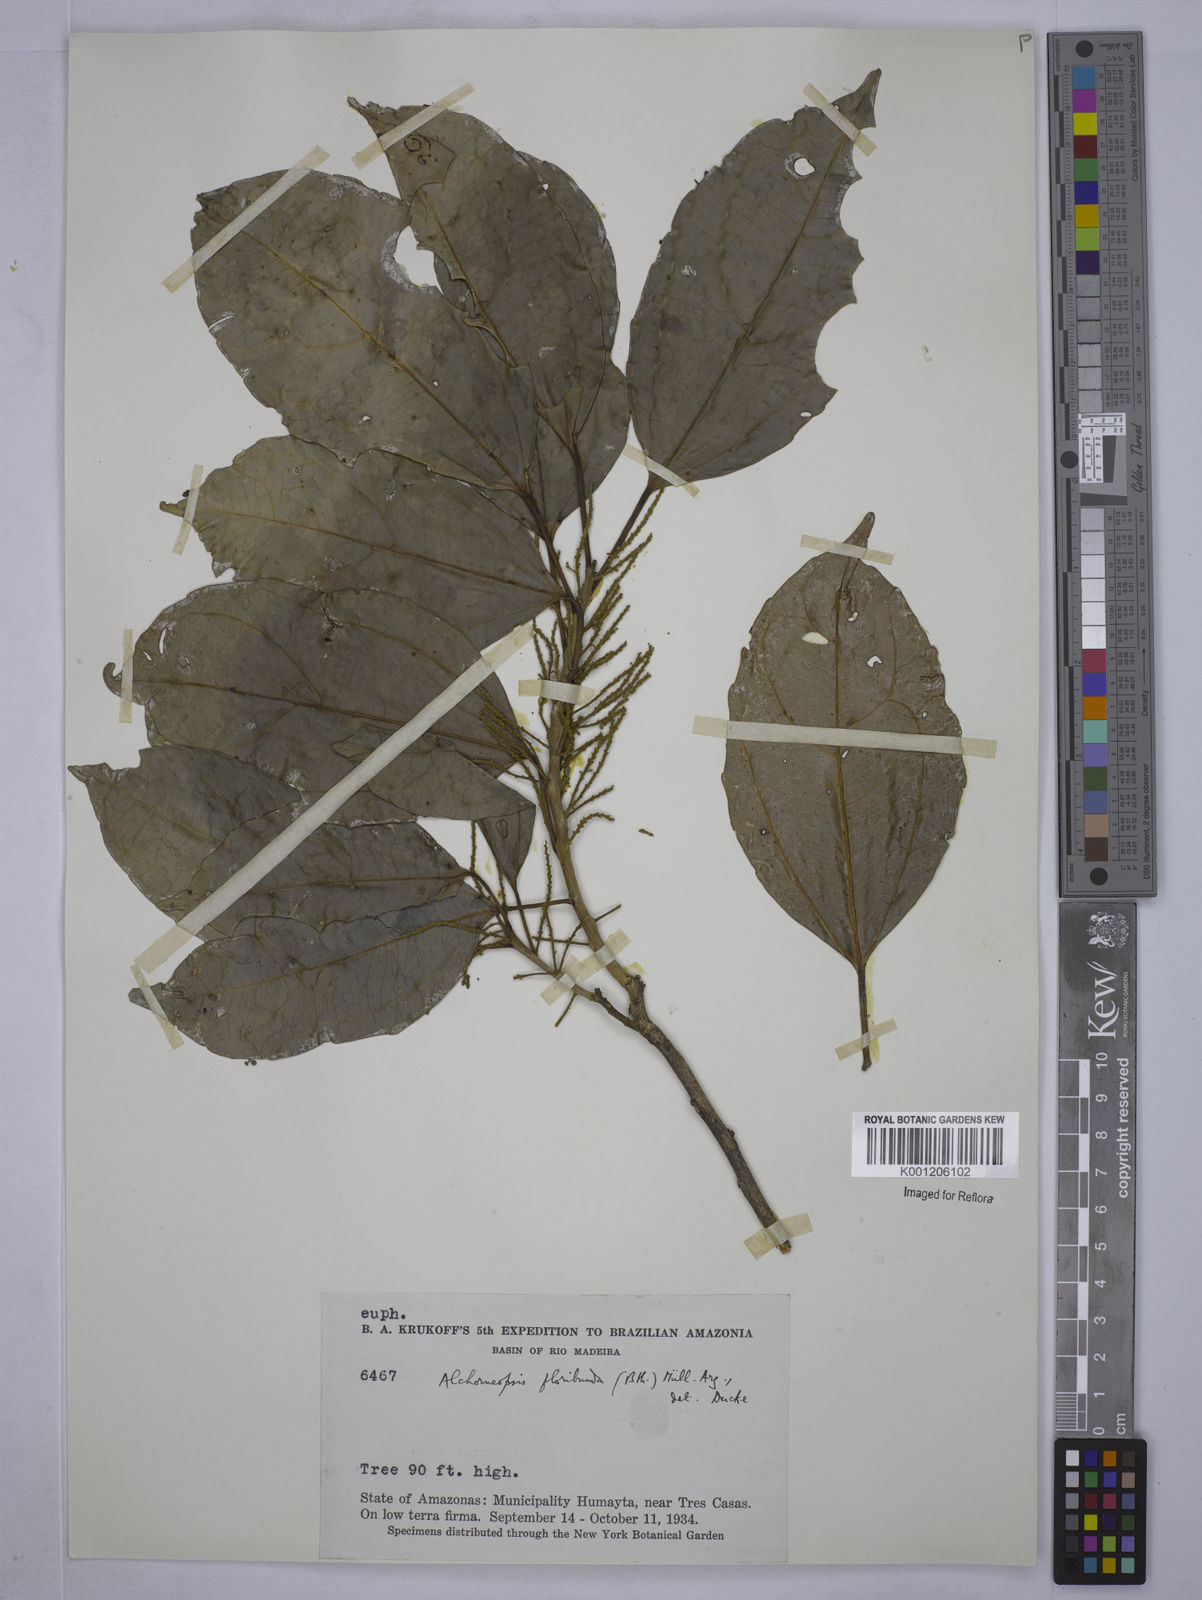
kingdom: Plantae
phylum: Tracheophyta
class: Magnoliopsida
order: Malpighiales
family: Euphorbiaceae
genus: Alchorneopsis
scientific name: Alchorneopsis
